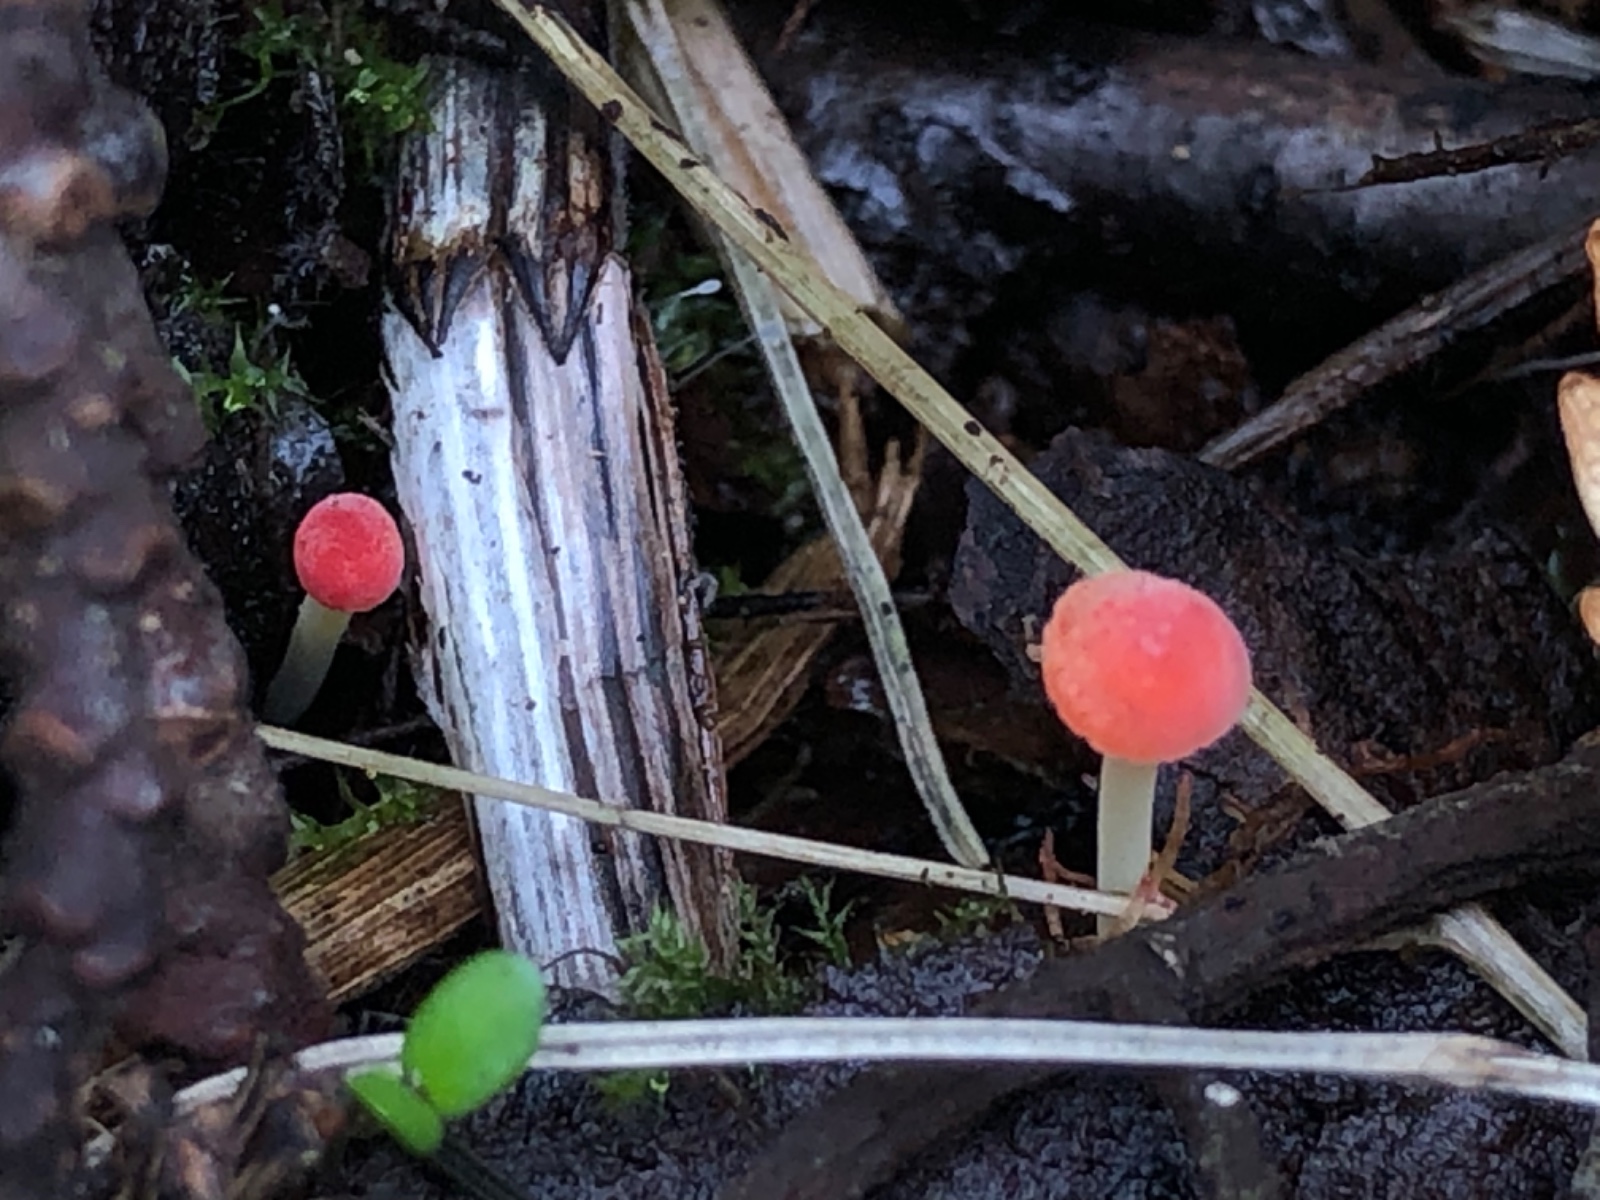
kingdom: Fungi
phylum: Basidiomycota
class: Agaricomycetes
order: Agaricales
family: Mycenaceae
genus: Mycena
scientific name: Mycena acicula
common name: orange huesvamp
